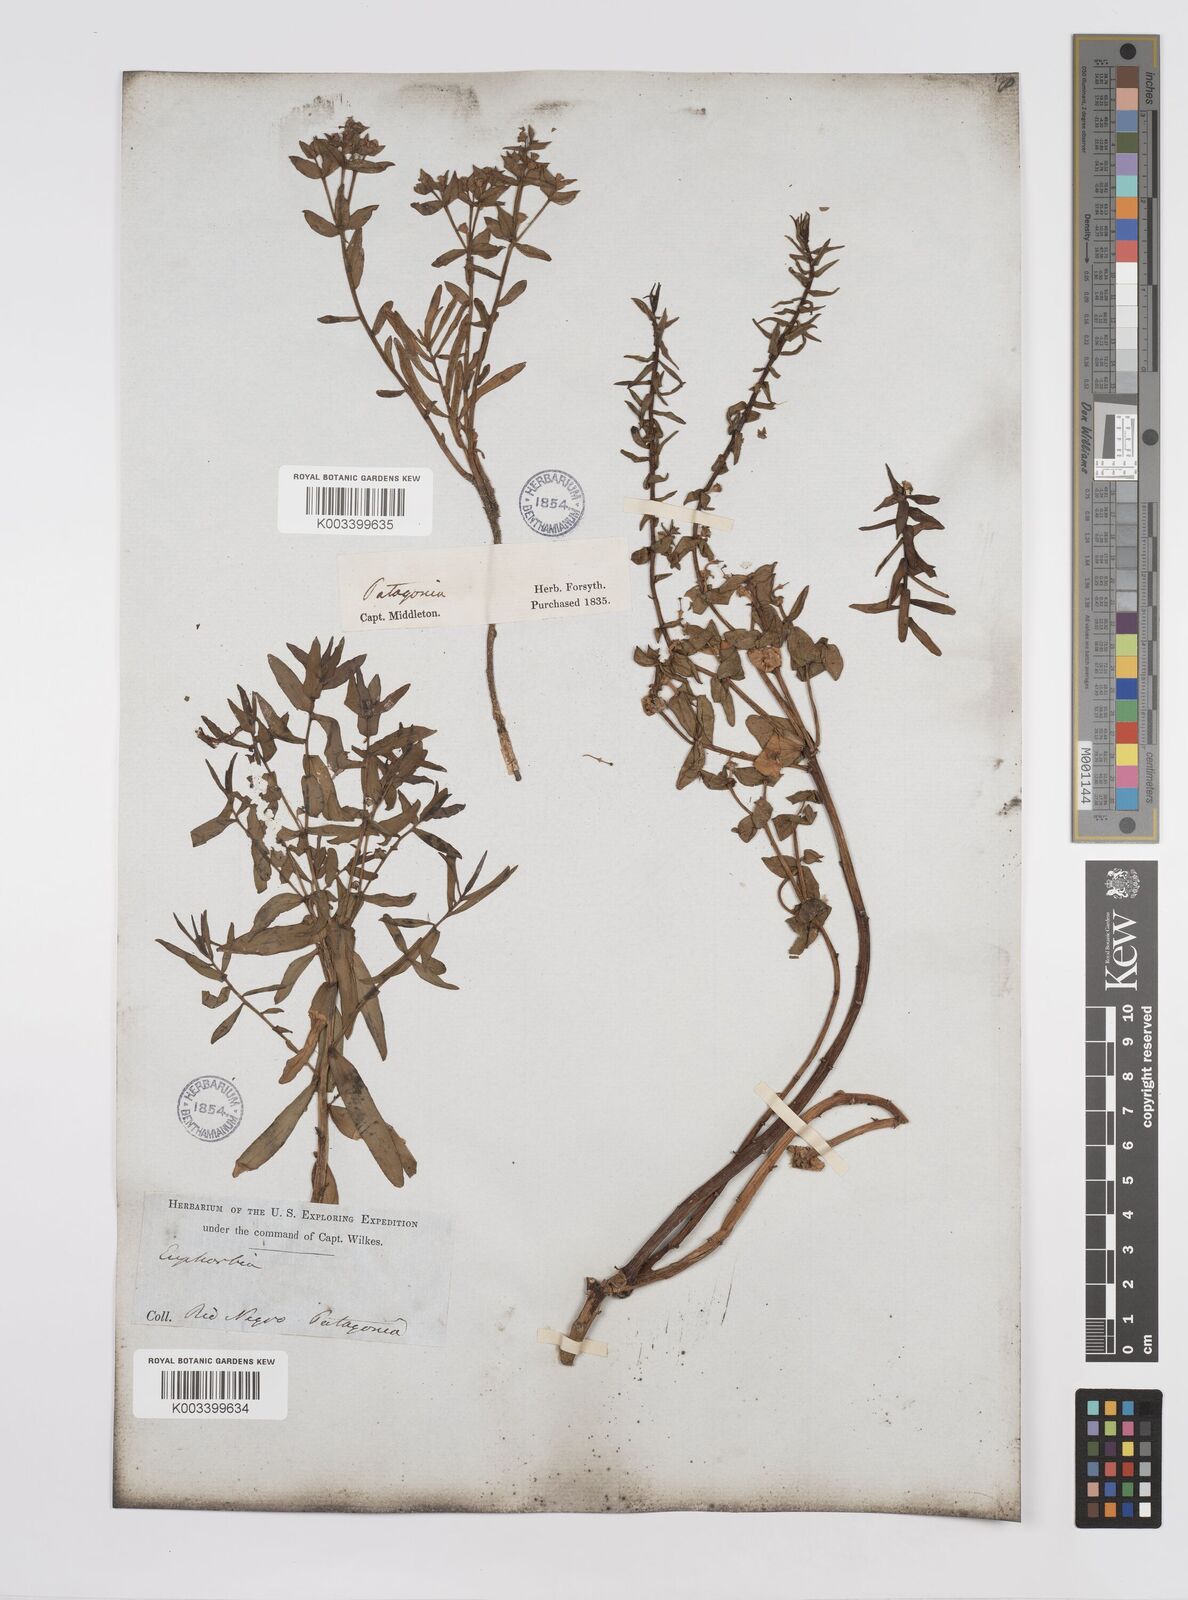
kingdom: Plantae
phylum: Tracheophyta
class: Magnoliopsida
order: Malpighiales
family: Euphorbiaceae
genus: Euphorbia
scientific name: Euphorbia portulacoides
